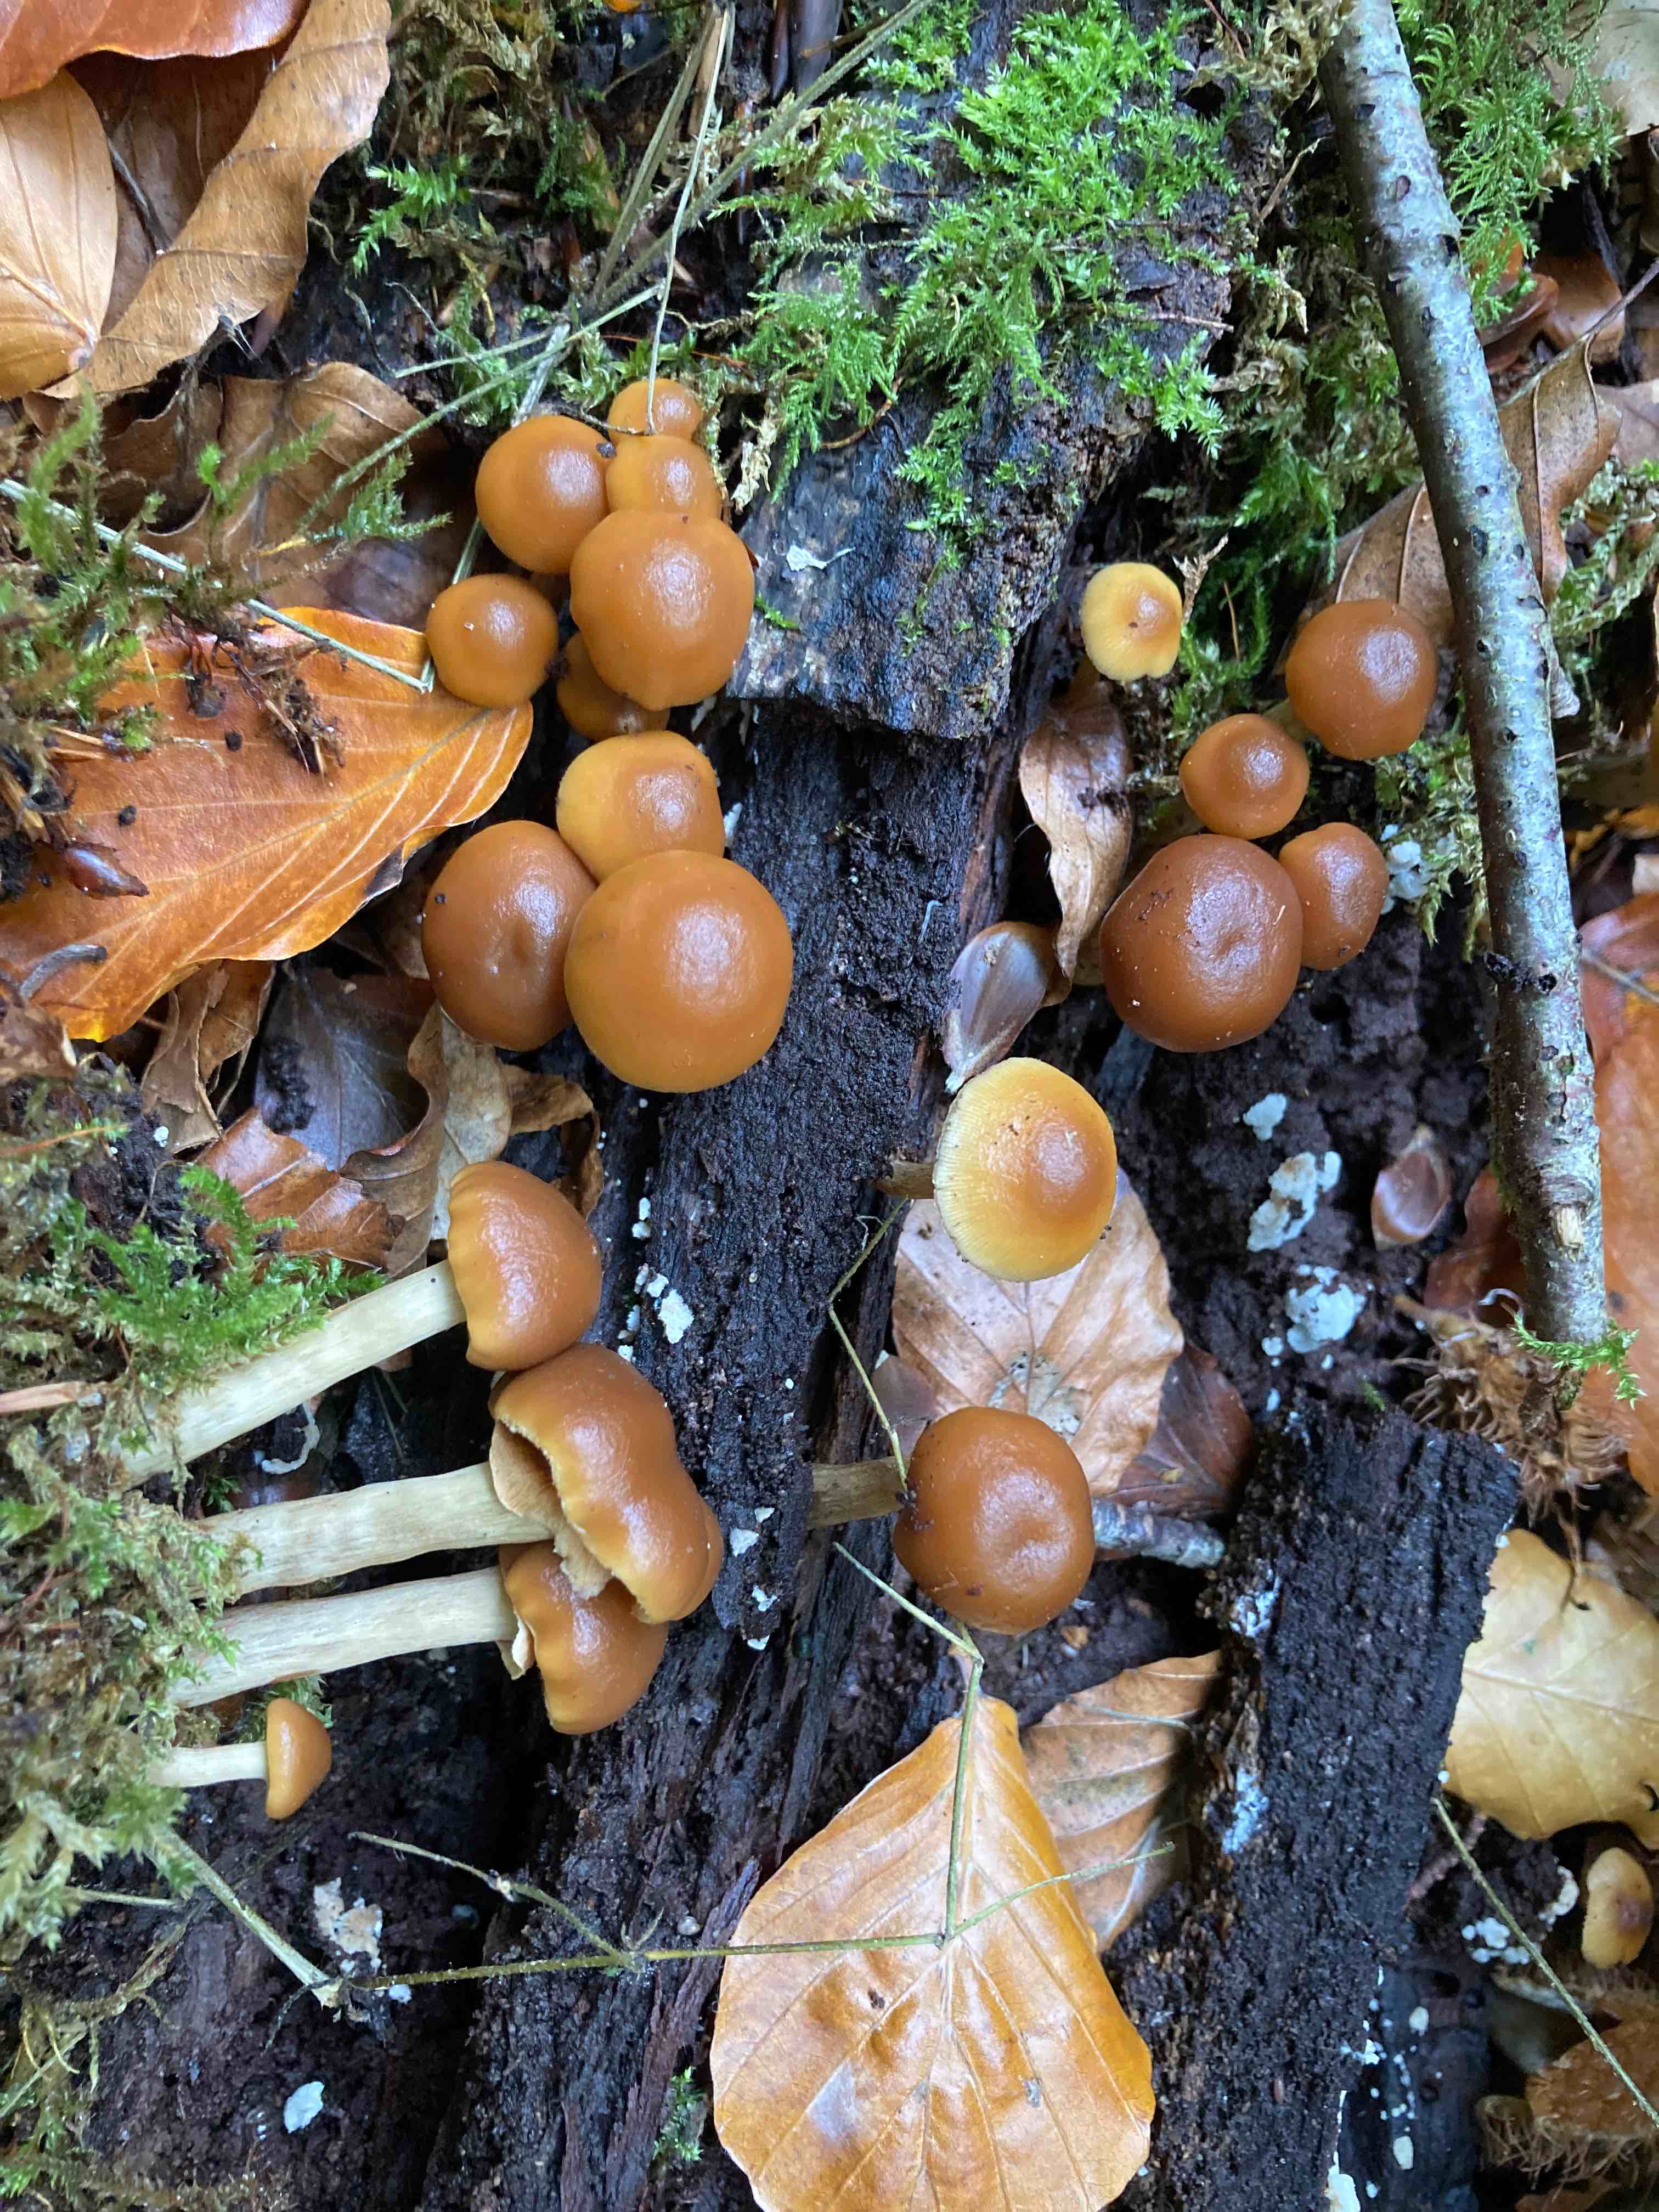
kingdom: Fungi
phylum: Basidiomycota
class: Agaricomycetes
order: Agaricales
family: Hymenogastraceae
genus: Galerina
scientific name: Galerina marginata
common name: randbæltet hjelmhat
